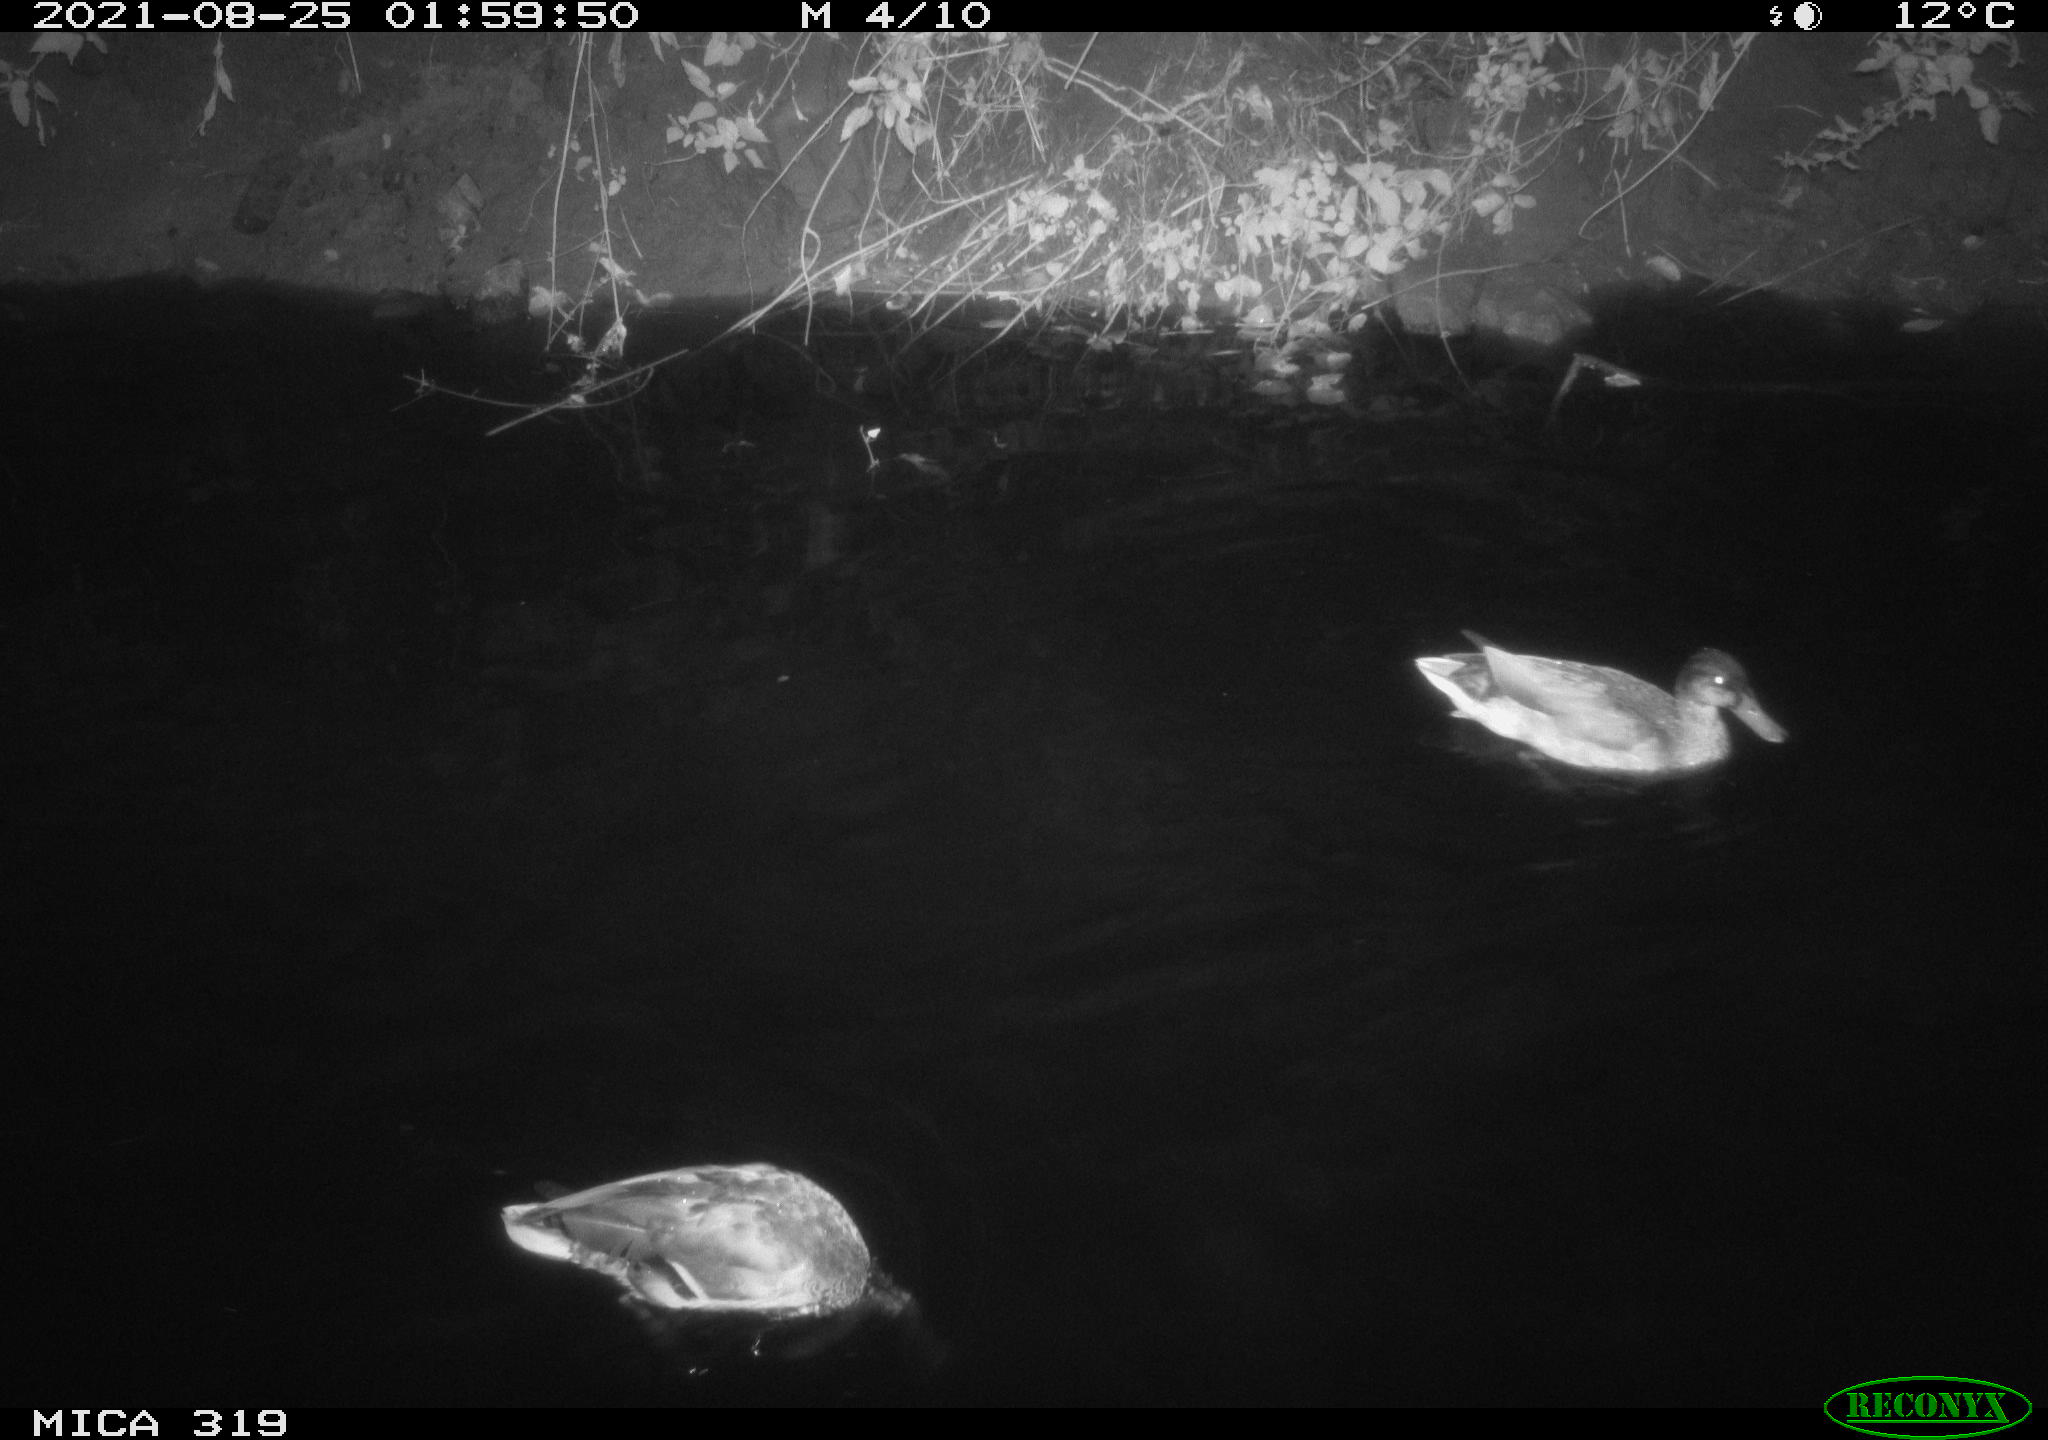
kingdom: Animalia
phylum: Chordata
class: Aves
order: Anseriformes
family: Anatidae
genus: Anas
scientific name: Anas platyrhynchos
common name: Mallard
